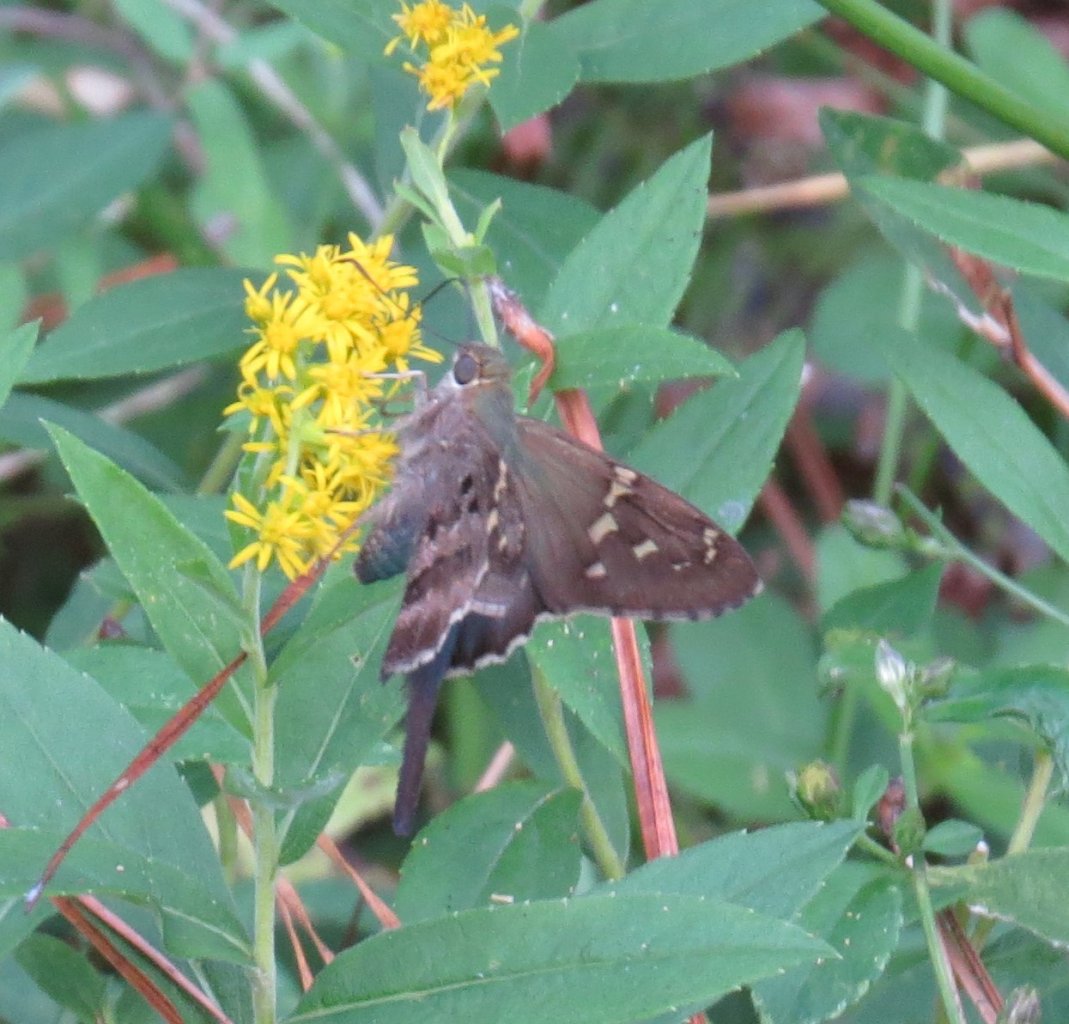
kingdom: Animalia
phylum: Arthropoda
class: Insecta
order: Lepidoptera
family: Hesperiidae
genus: Urbanus
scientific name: Urbanus proteus
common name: Long-tailed Skipper
